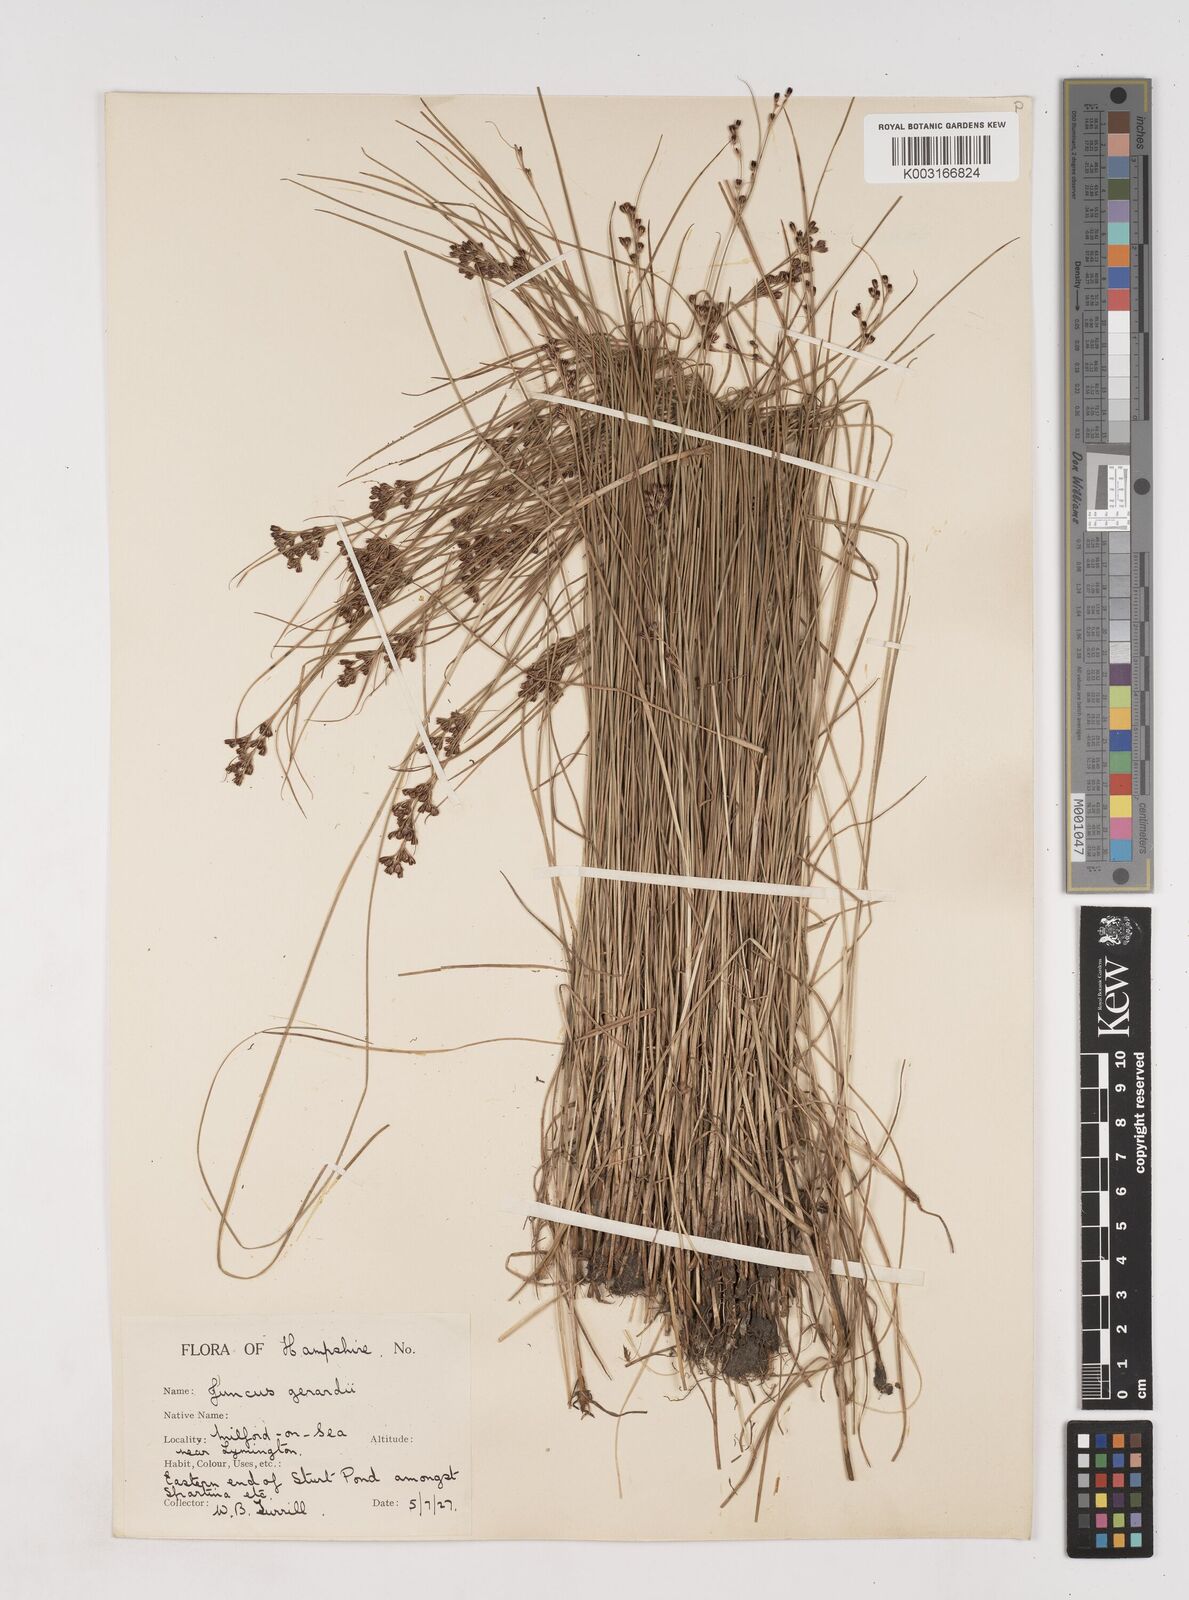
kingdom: Plantae
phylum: Tracheophyta
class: Liliopsida
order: Poales
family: Juncaceae
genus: Juncus
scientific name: Juncus gerardi
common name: Saltmarsh rush
